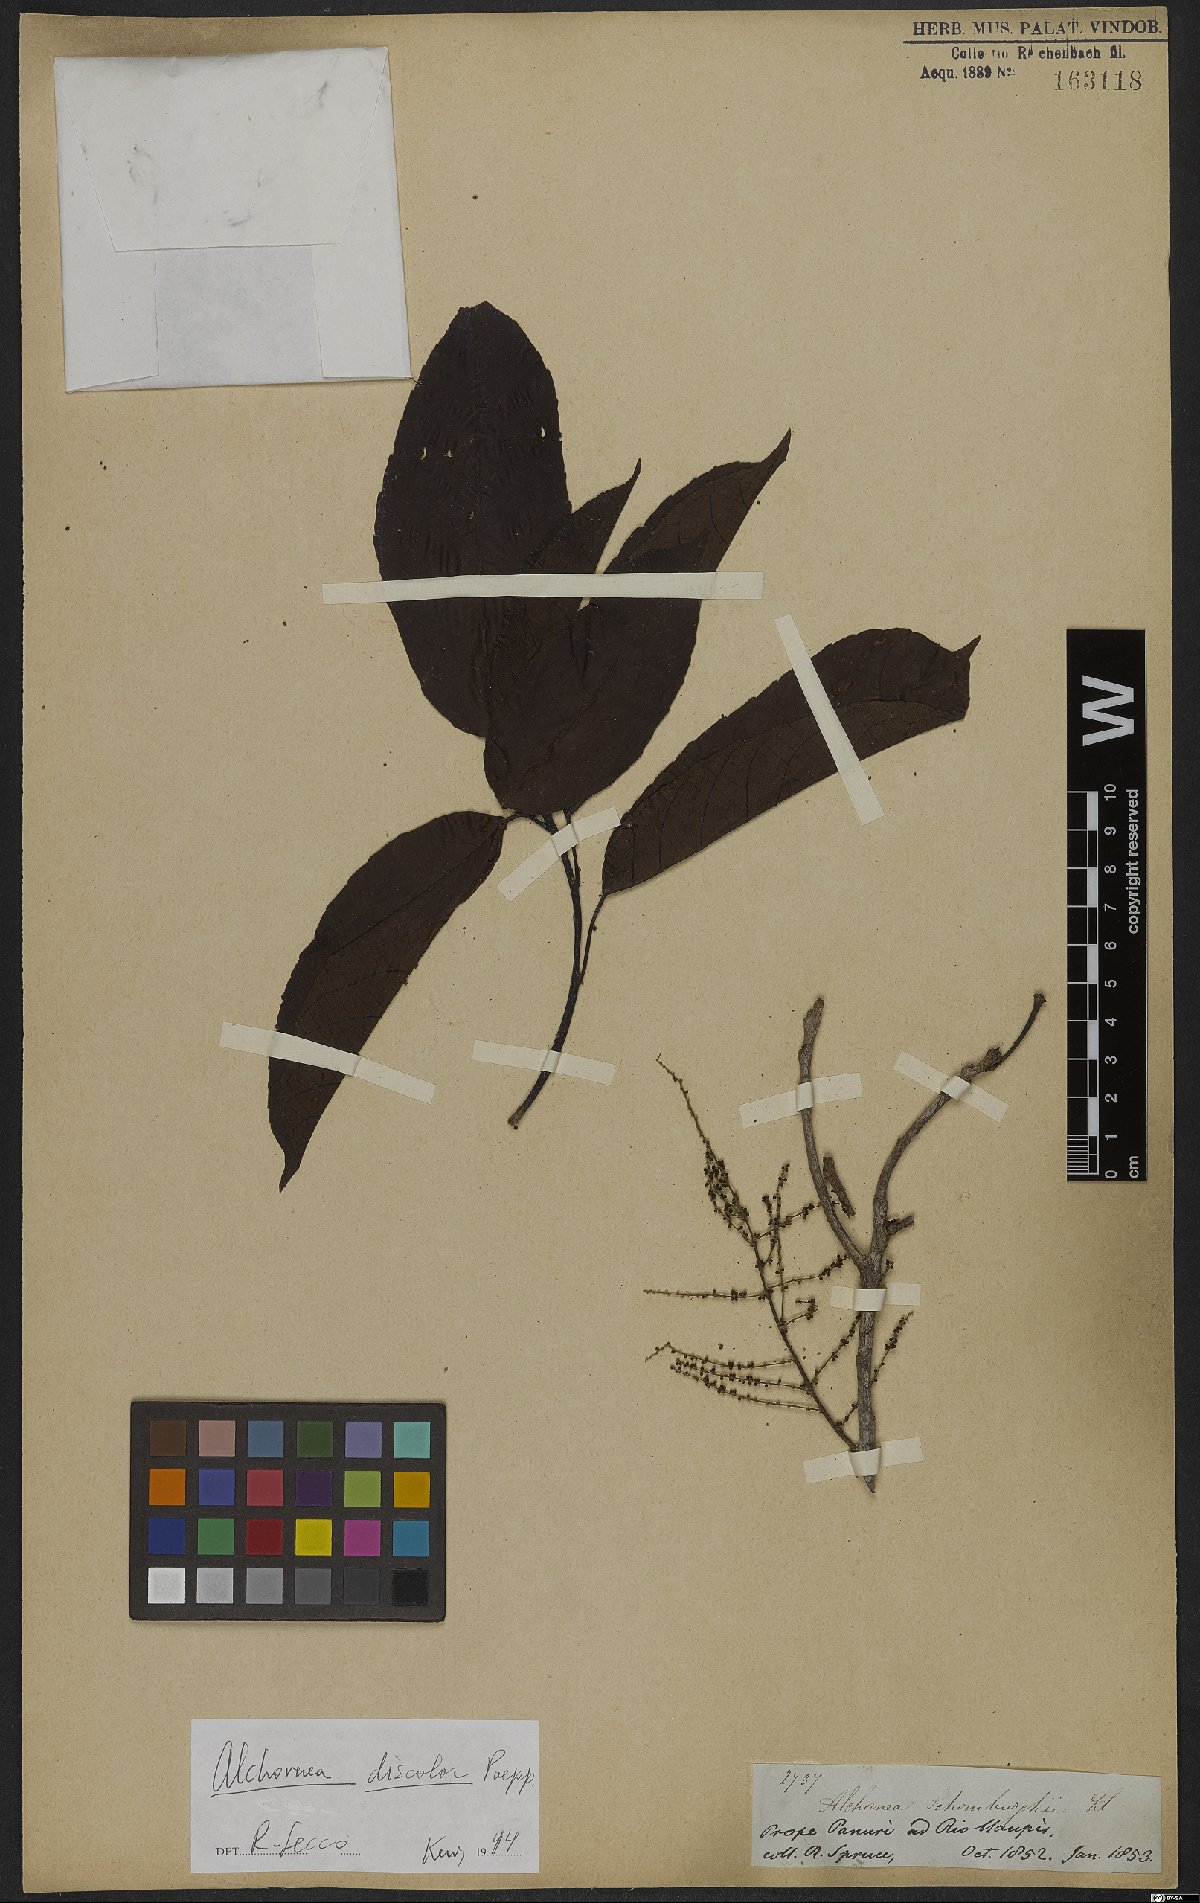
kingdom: Plantae
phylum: Tracheophyta
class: Magnoliopsida
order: Malpighiales
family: Euphorbiaceae
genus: Alchornea
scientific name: Alchornea discolor
